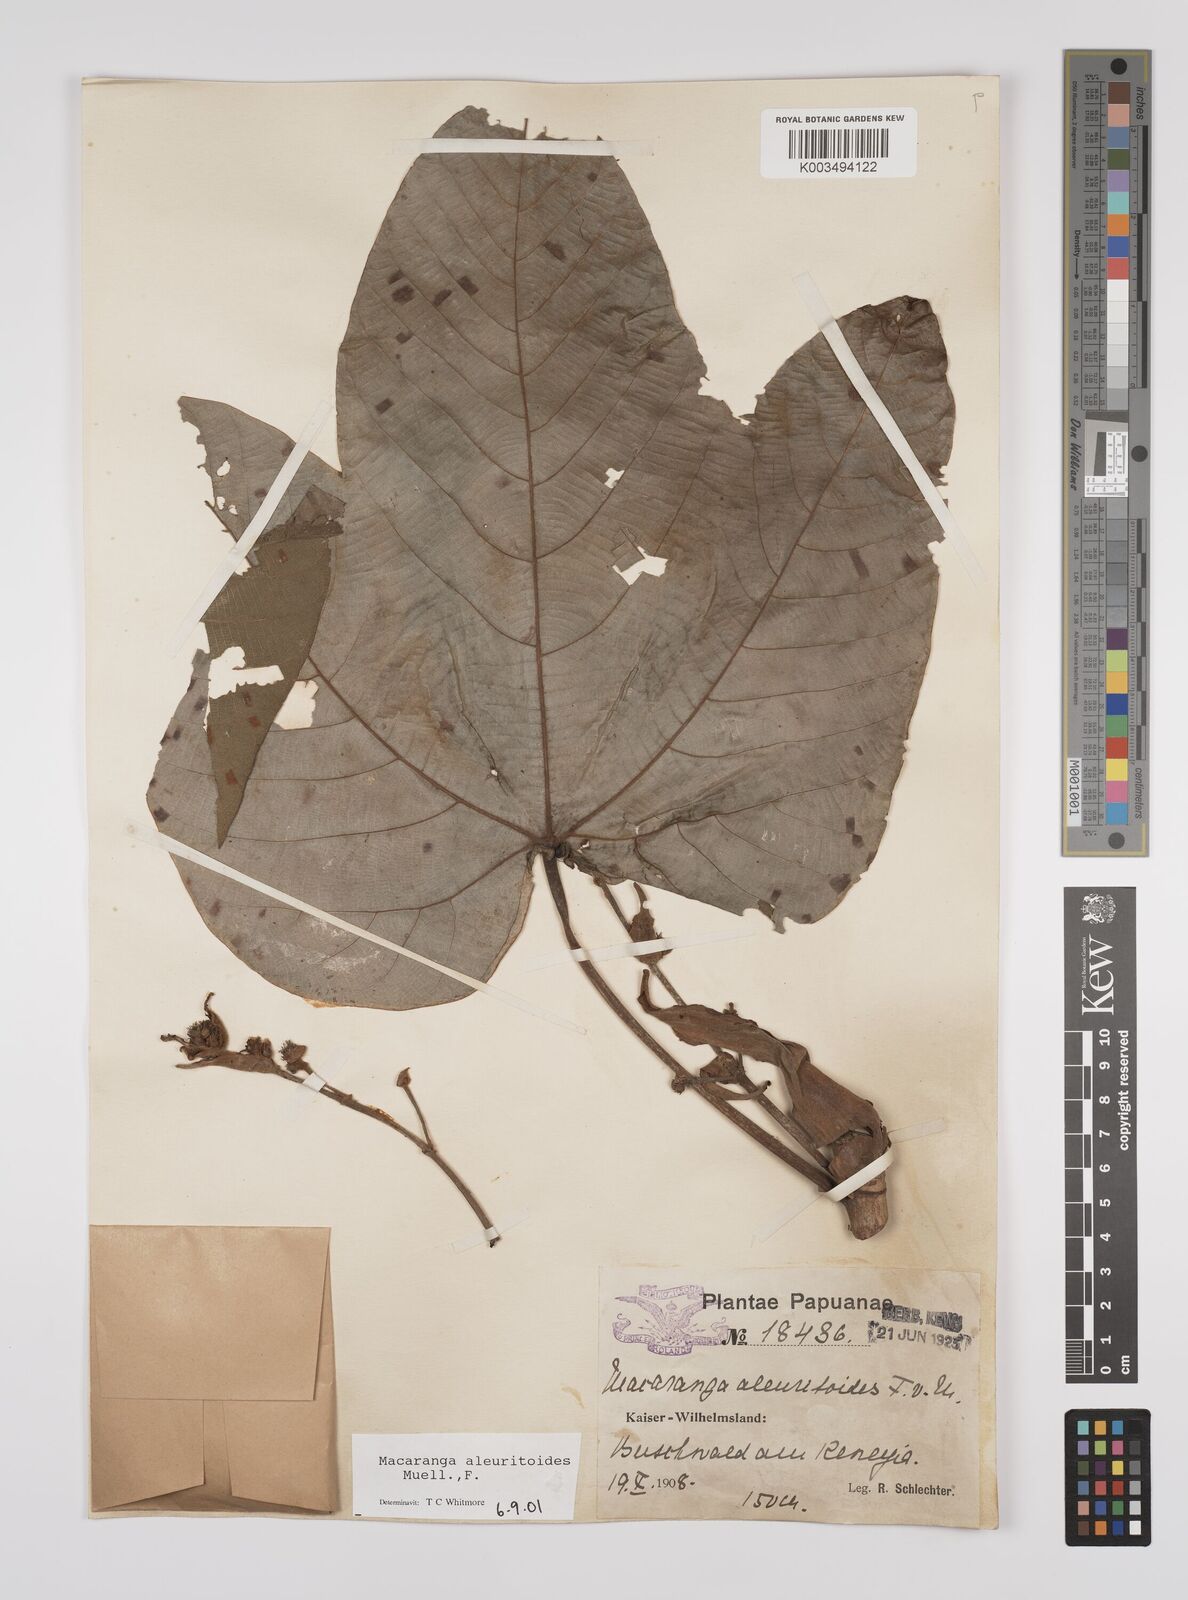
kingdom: Plantae
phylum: Tracheophyta
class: Magnoliopsida
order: Malpighiales
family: Euphorbiaceae
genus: Macaranga
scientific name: Macaranga aleuritoides
